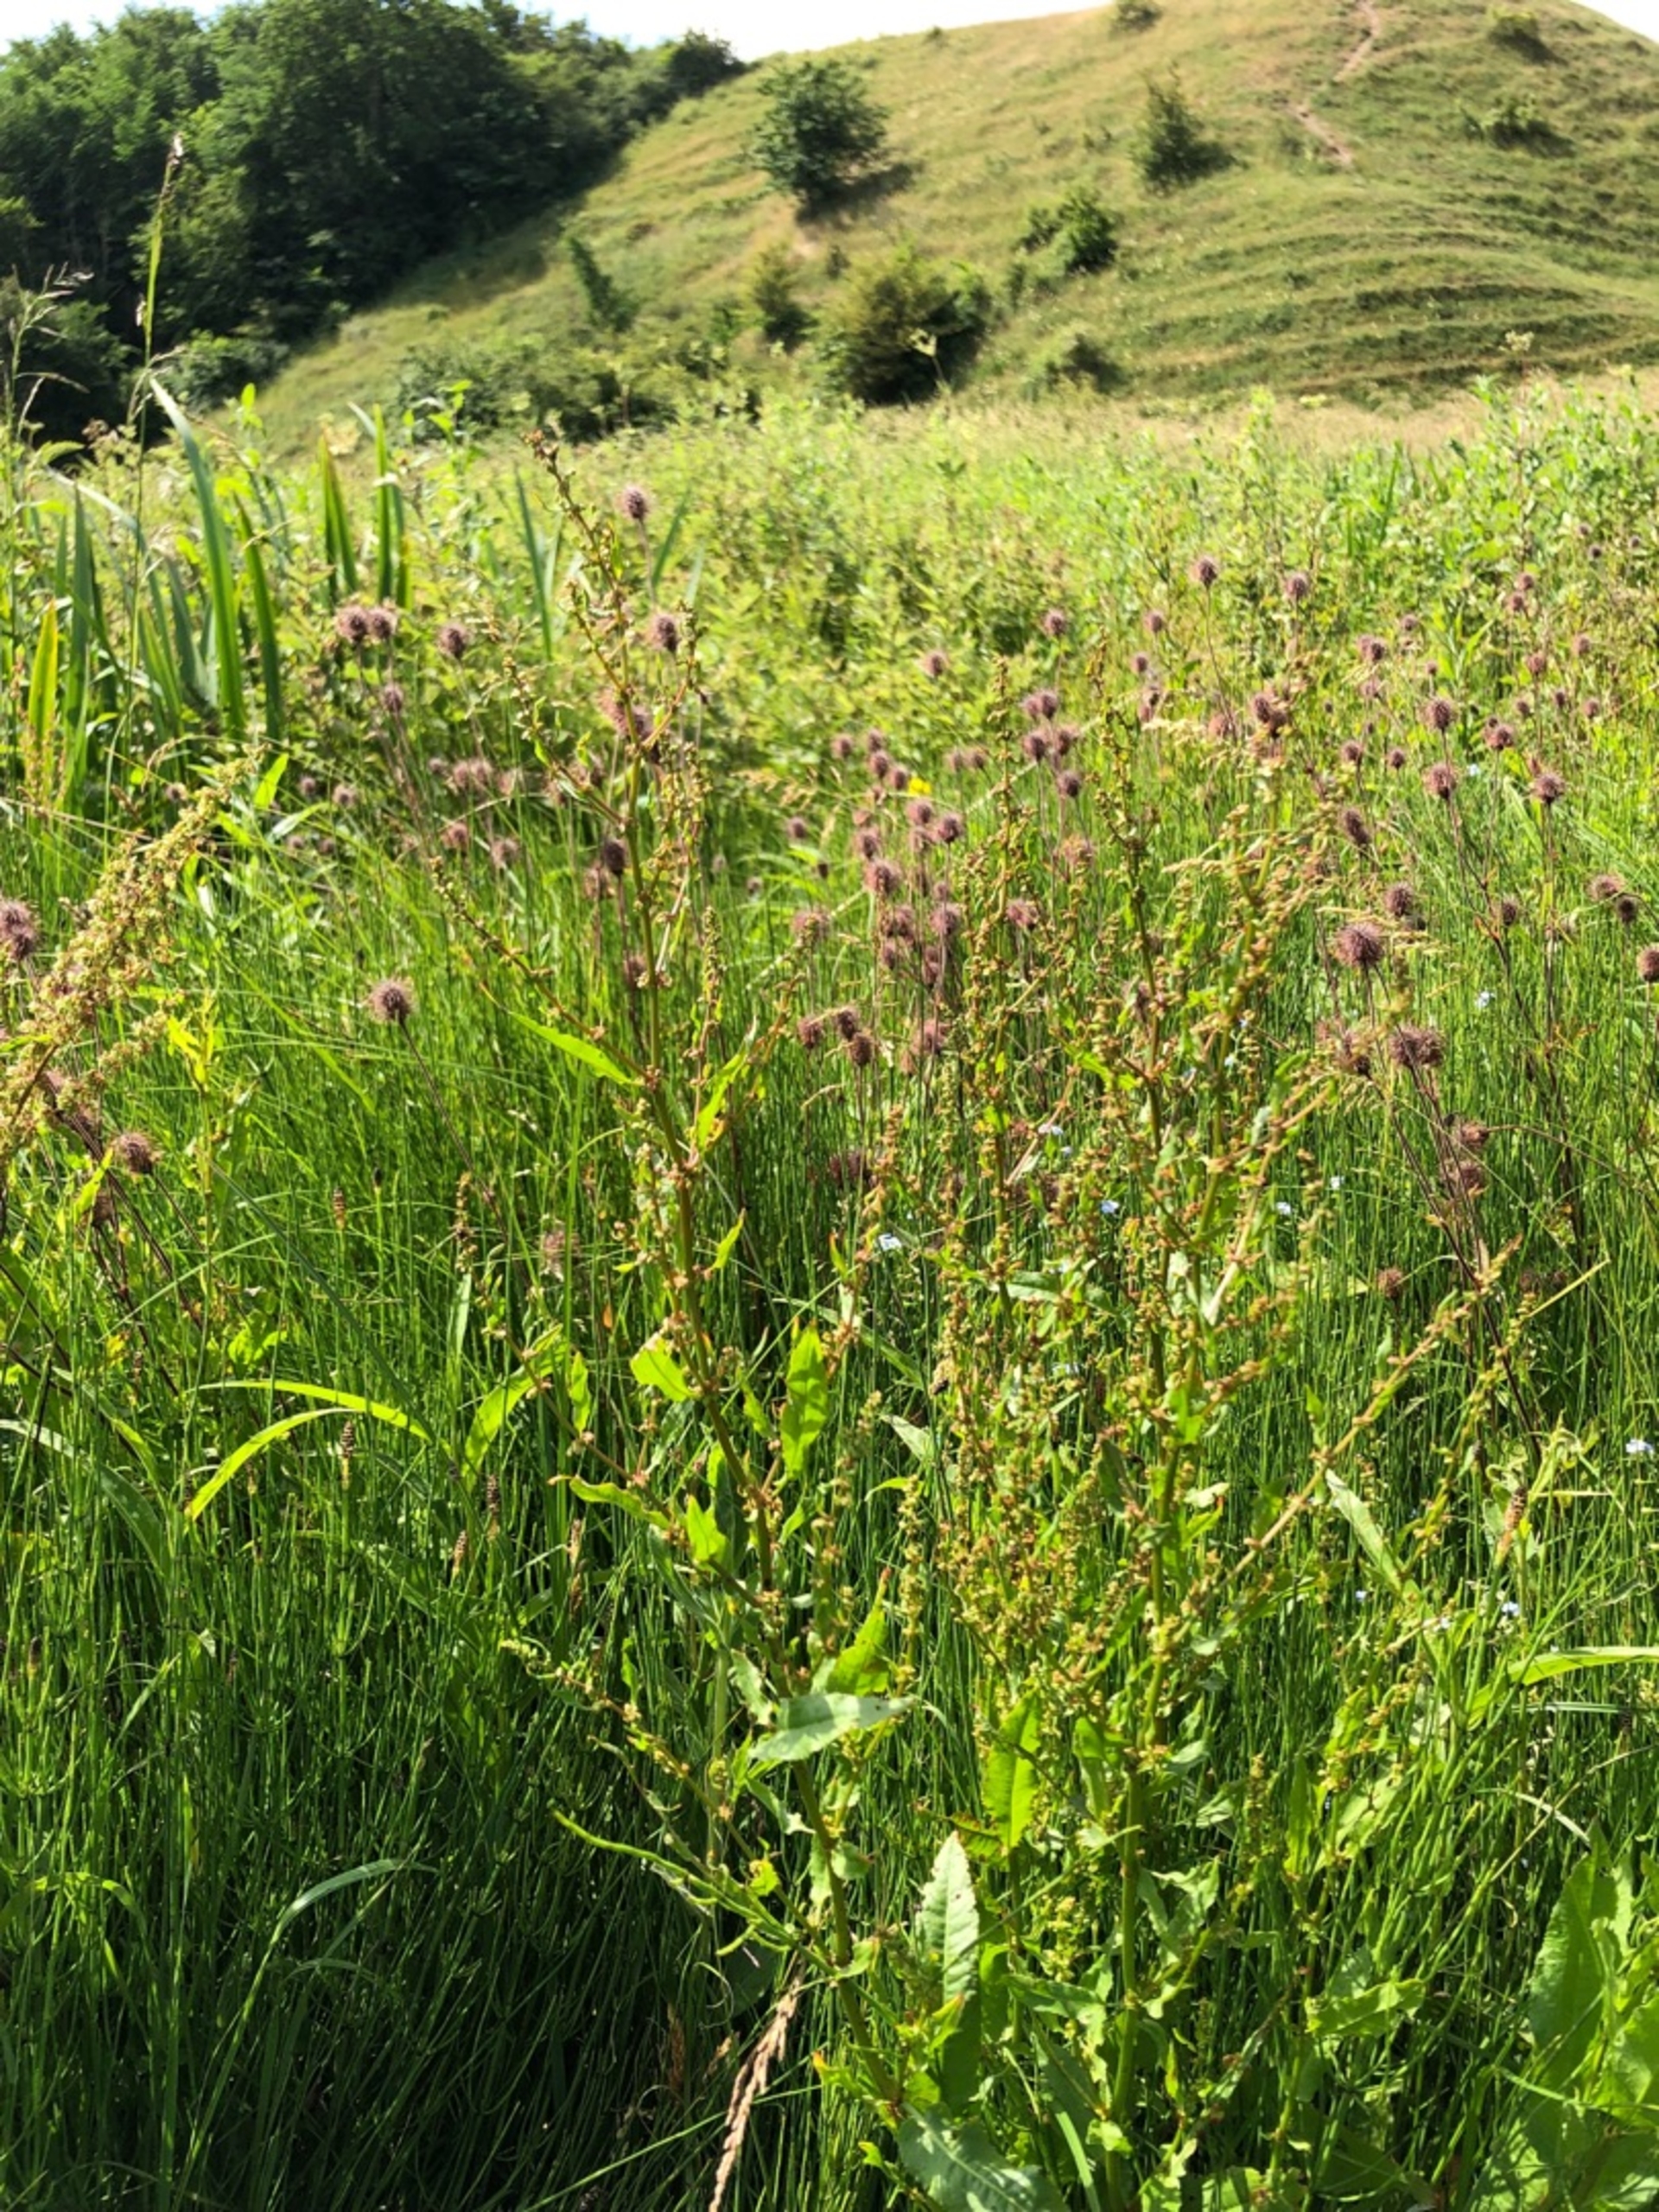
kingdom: Plantae
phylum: Tracheophyta
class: Magnoliopsida
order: Caryophyllales
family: Polygonaceae
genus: Rumex
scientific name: Rumex conglomeratus
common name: Nøgle-skræppe
